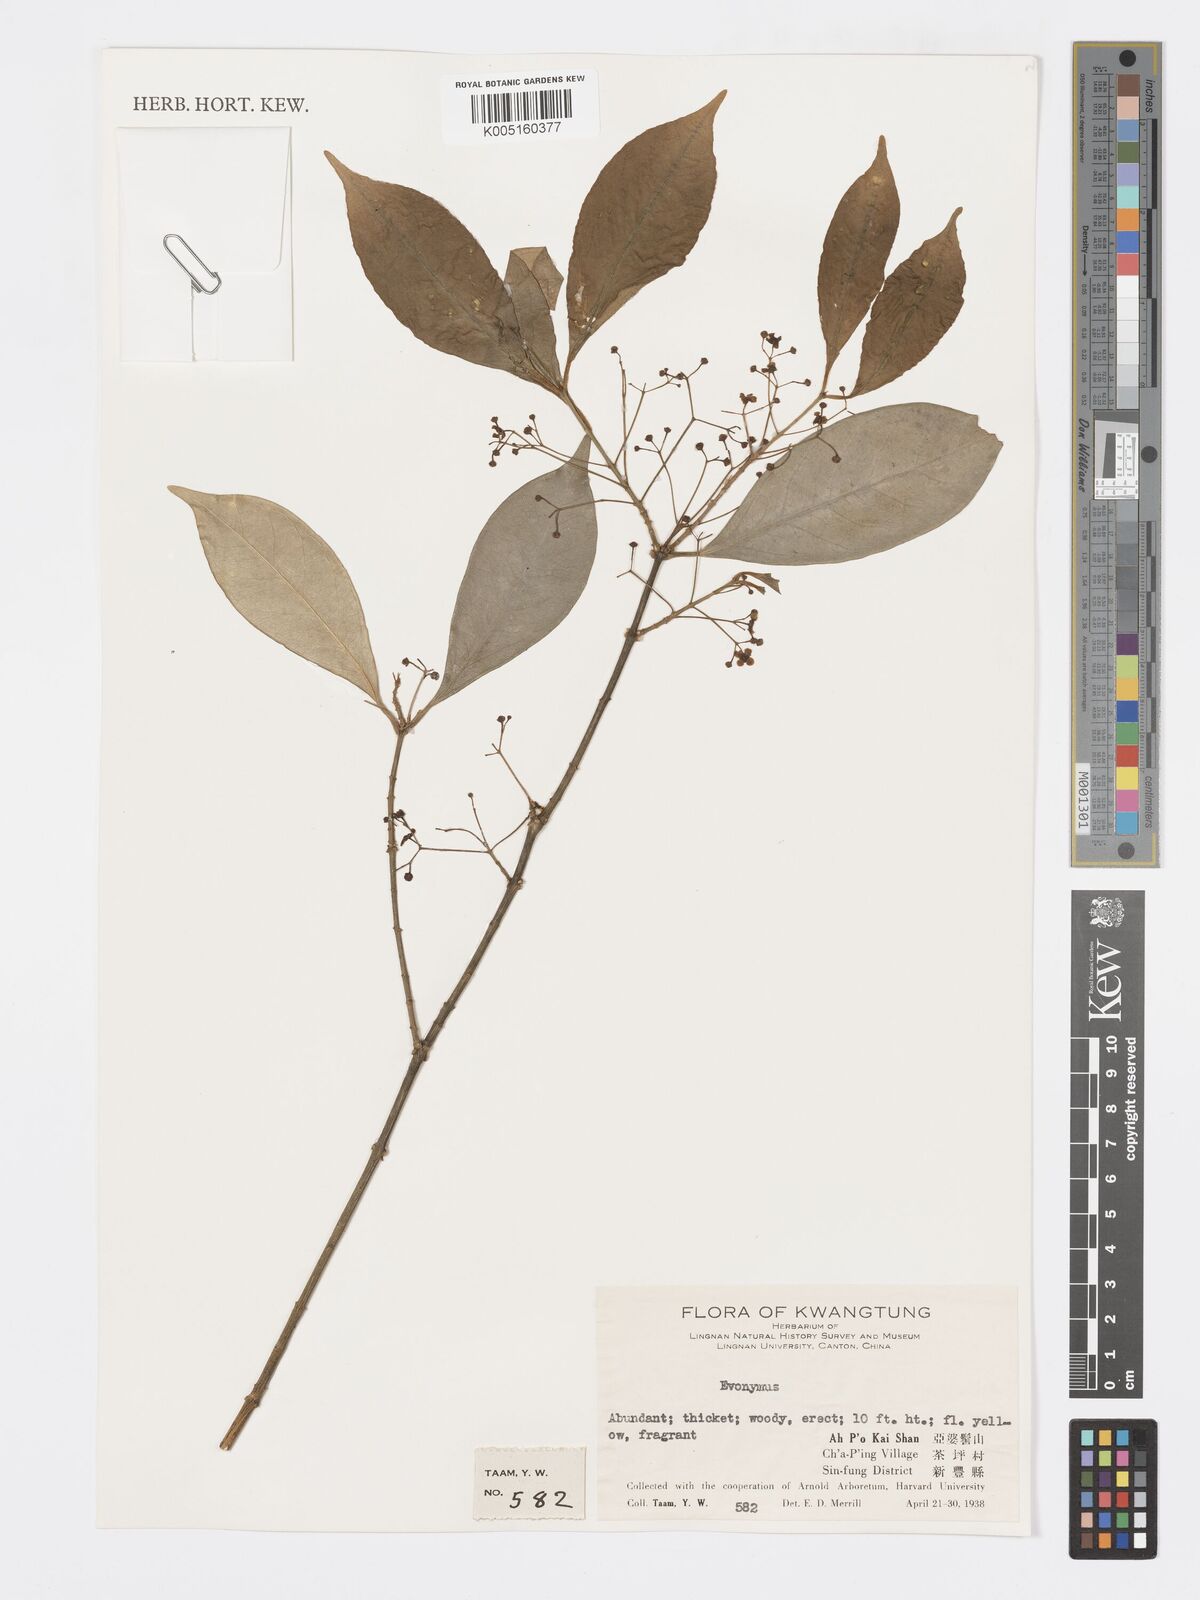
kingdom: Plantae
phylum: Tracheophyta
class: Magnoliopsida
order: Celastrales
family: Celastraceae
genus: Euonymus
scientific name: Euonymus
